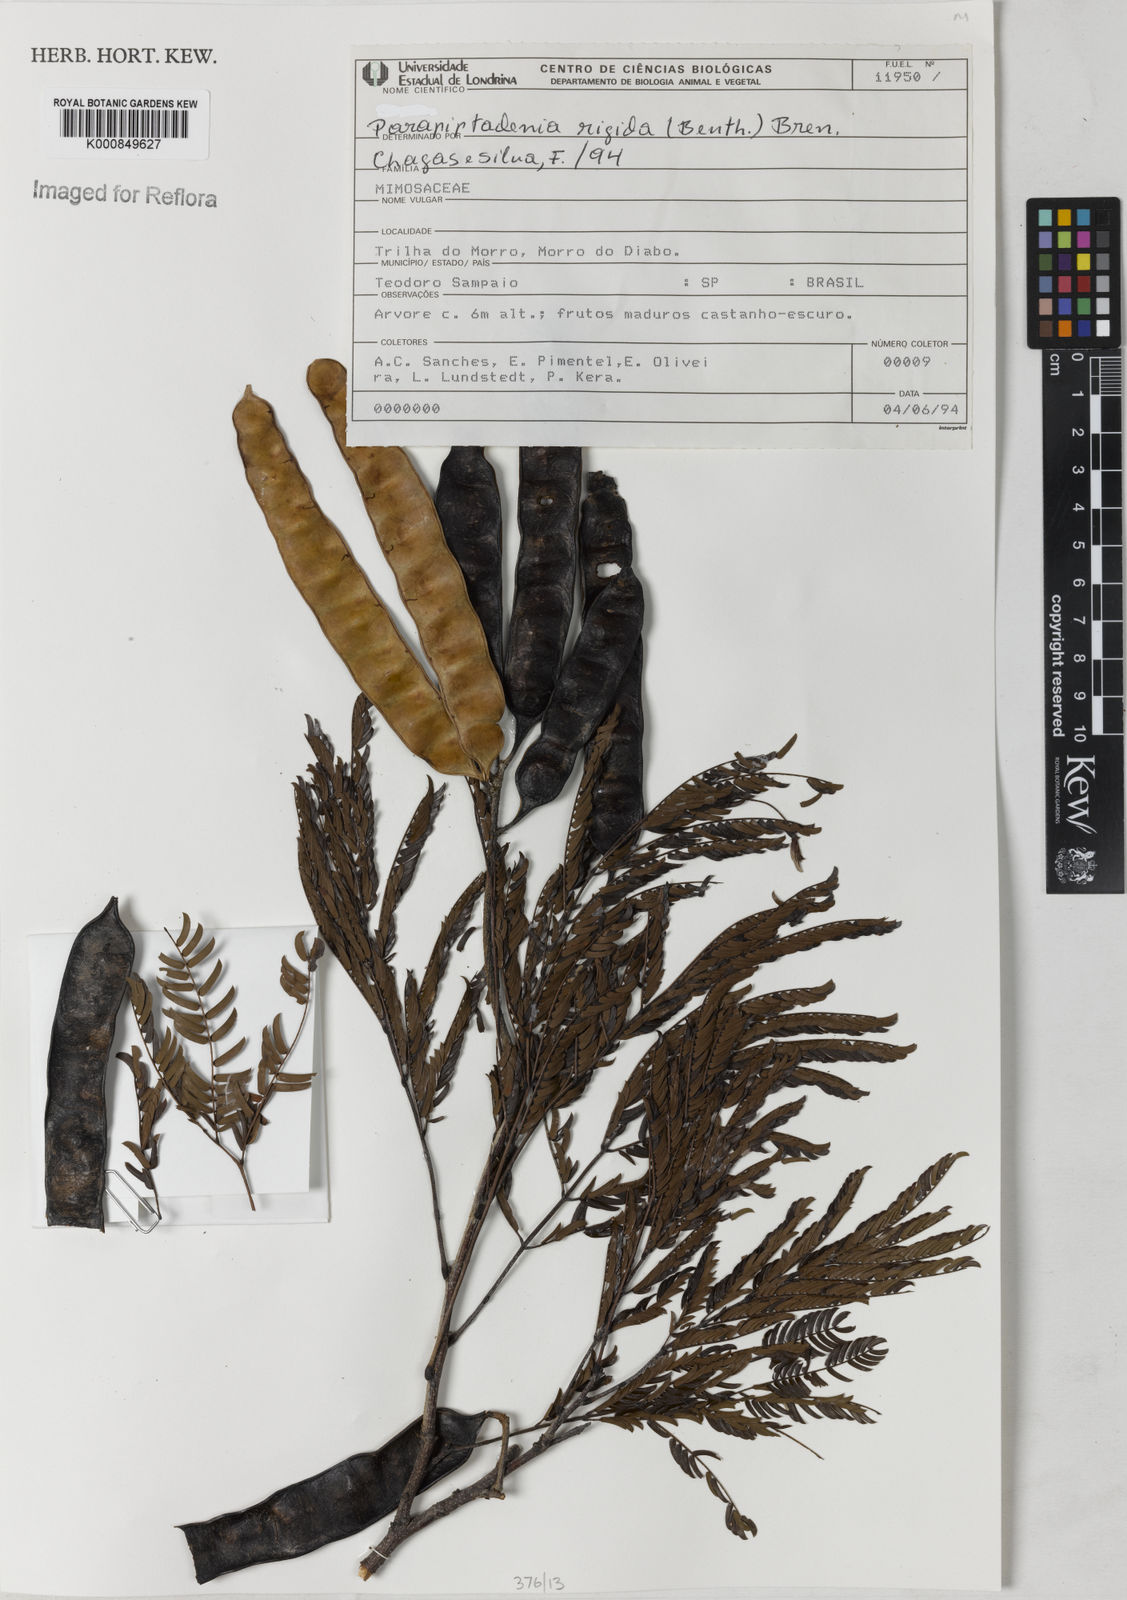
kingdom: Plantae
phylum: Tracheophyta
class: Magnoliopsida
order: Fabales
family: Fabaceae
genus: Parapiptadenia
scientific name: Parapiptadenia rigida
